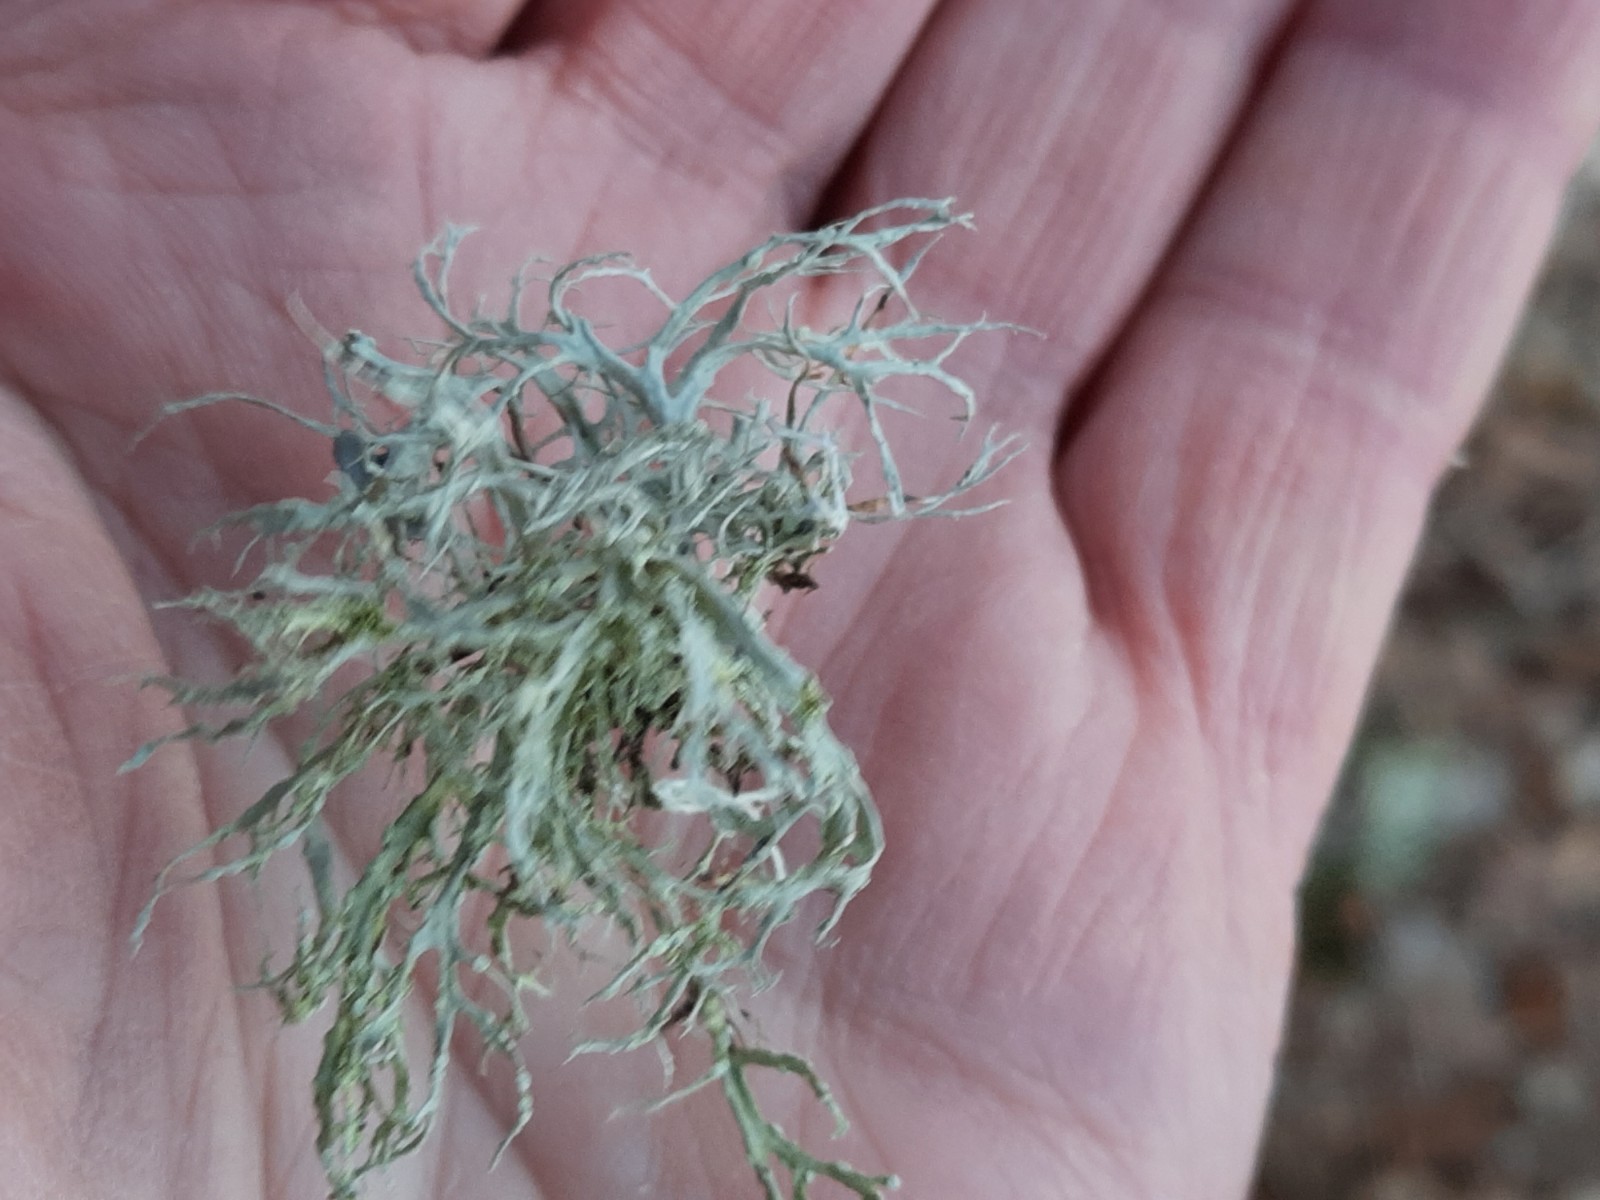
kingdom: Fungi
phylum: Ascomycota
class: Lecanoromycetes
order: Lecanorales
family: Ramalinaceae
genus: Ramalina
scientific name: Ramalina farinacea
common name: melet grenlav
